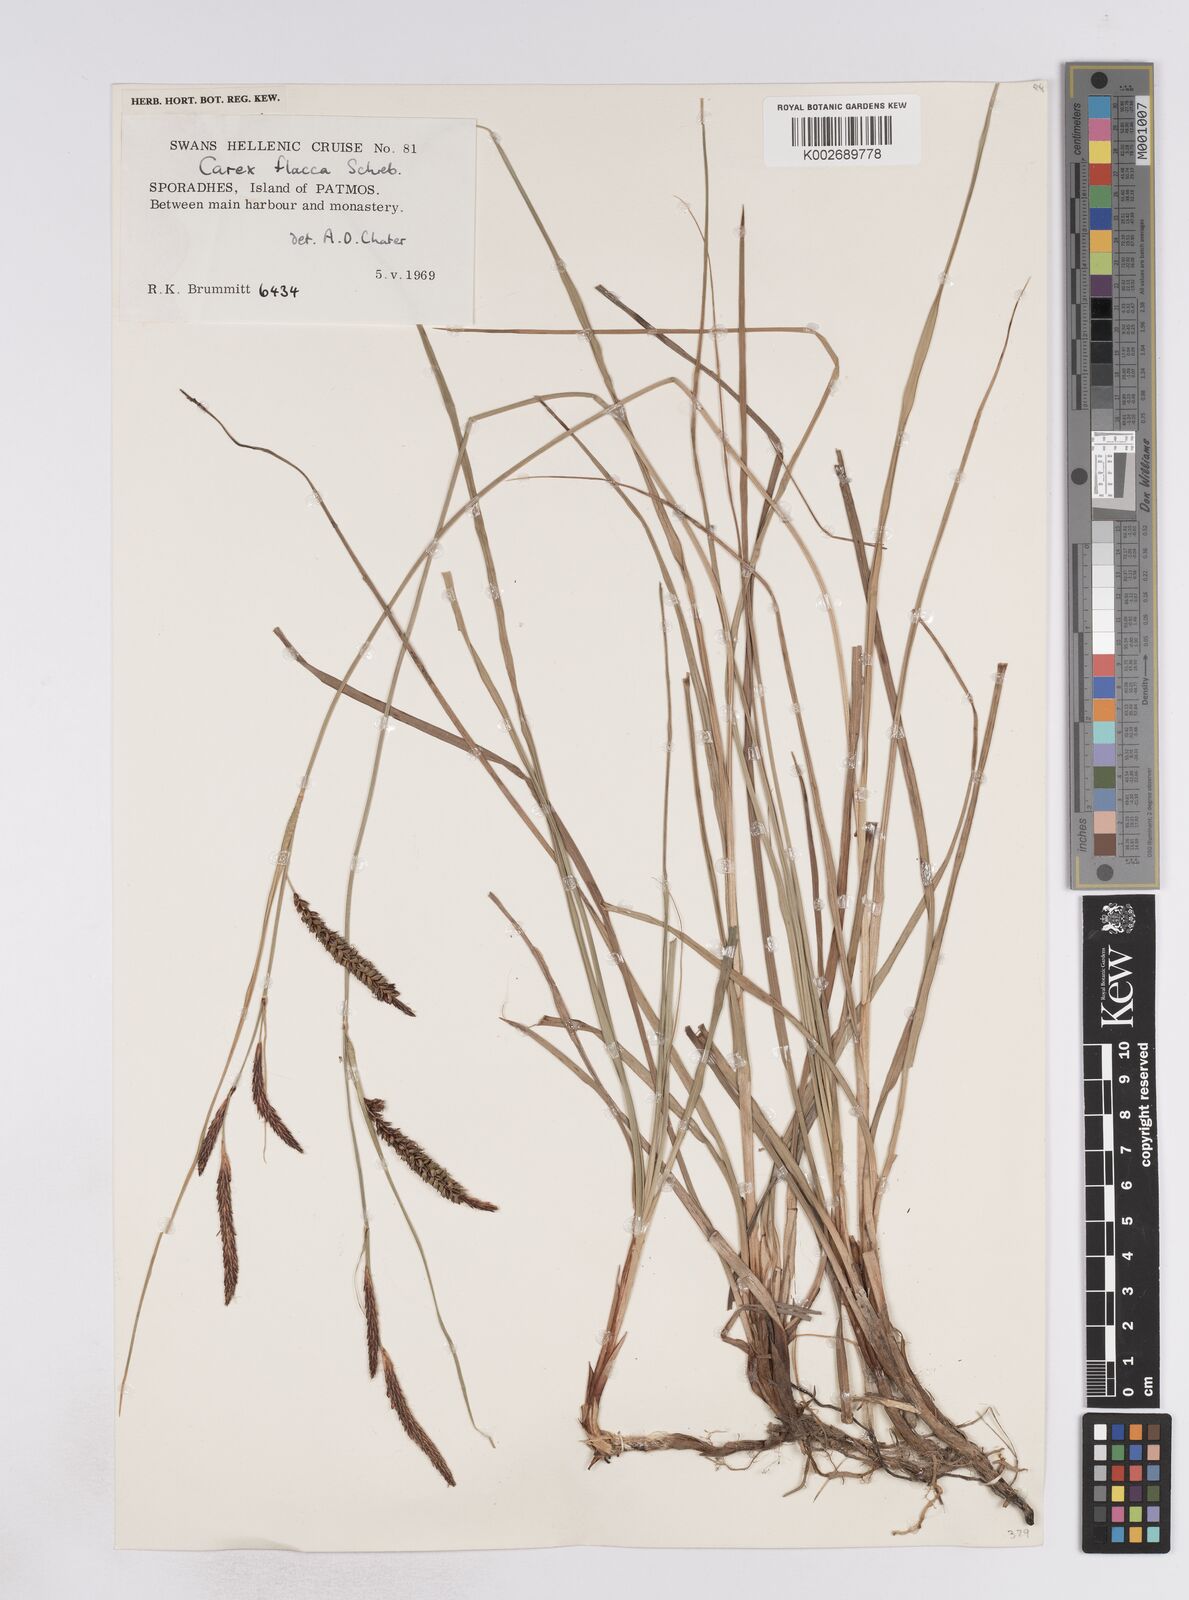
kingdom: Plantae
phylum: Tracheophyta
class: Liliopsida
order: Poales
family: Cyperaceae
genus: Carex
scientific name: Carex flacca
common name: Glaucous sedge
